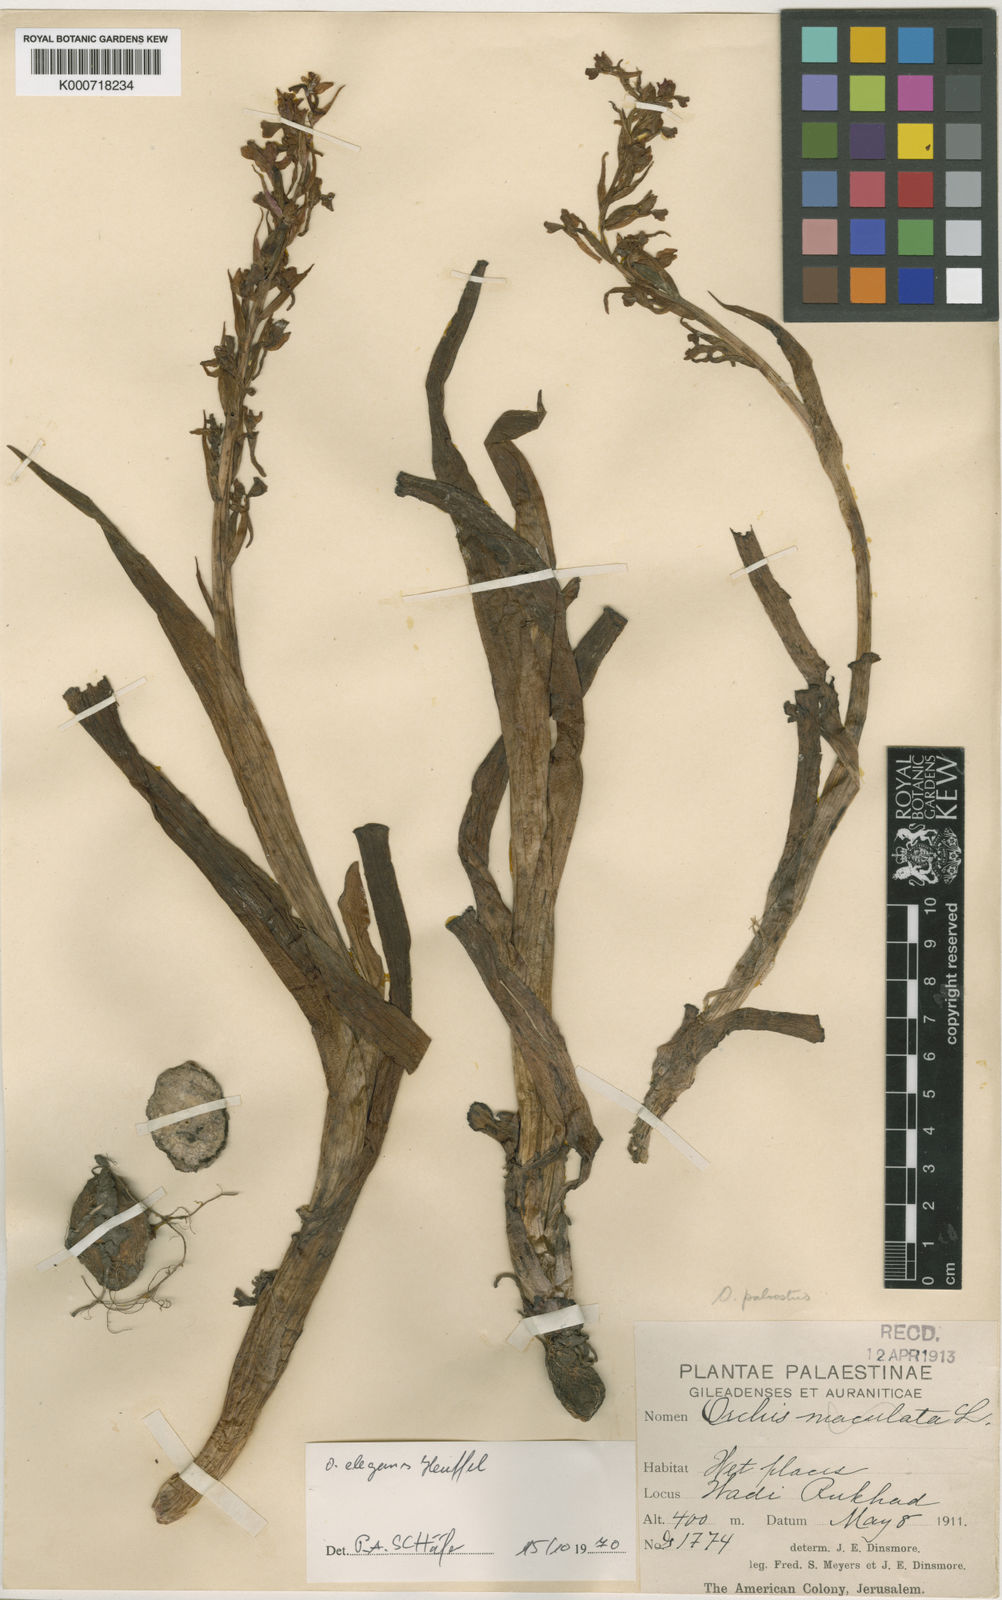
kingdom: Plantae
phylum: Tracheophyta
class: Liliopsida
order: Asparagales
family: Orchidaceae
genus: Anacamptis
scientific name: Anacamptis palustris
